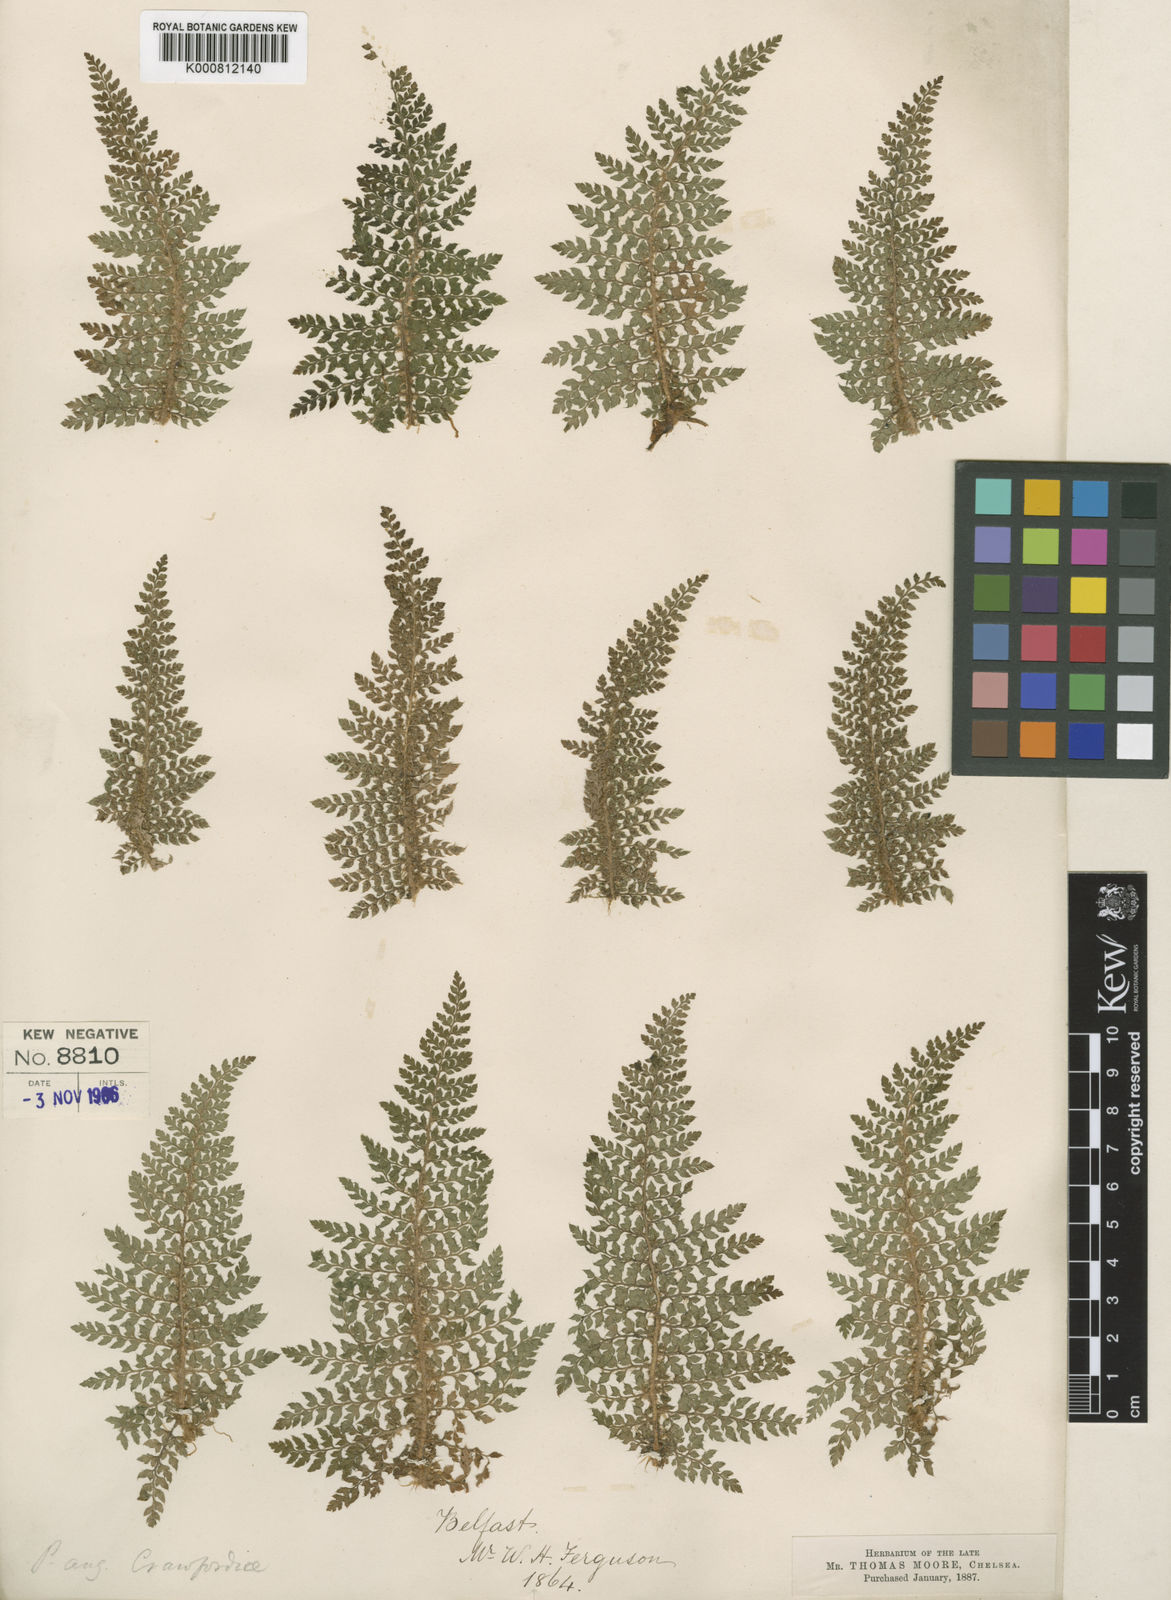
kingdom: Plantae
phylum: Tracheophyta
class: Polypodiopsida
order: Polypodiales
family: Dryopteridaceae
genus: Polystichum
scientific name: Polystichum setiferum
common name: Soft shield-fern
